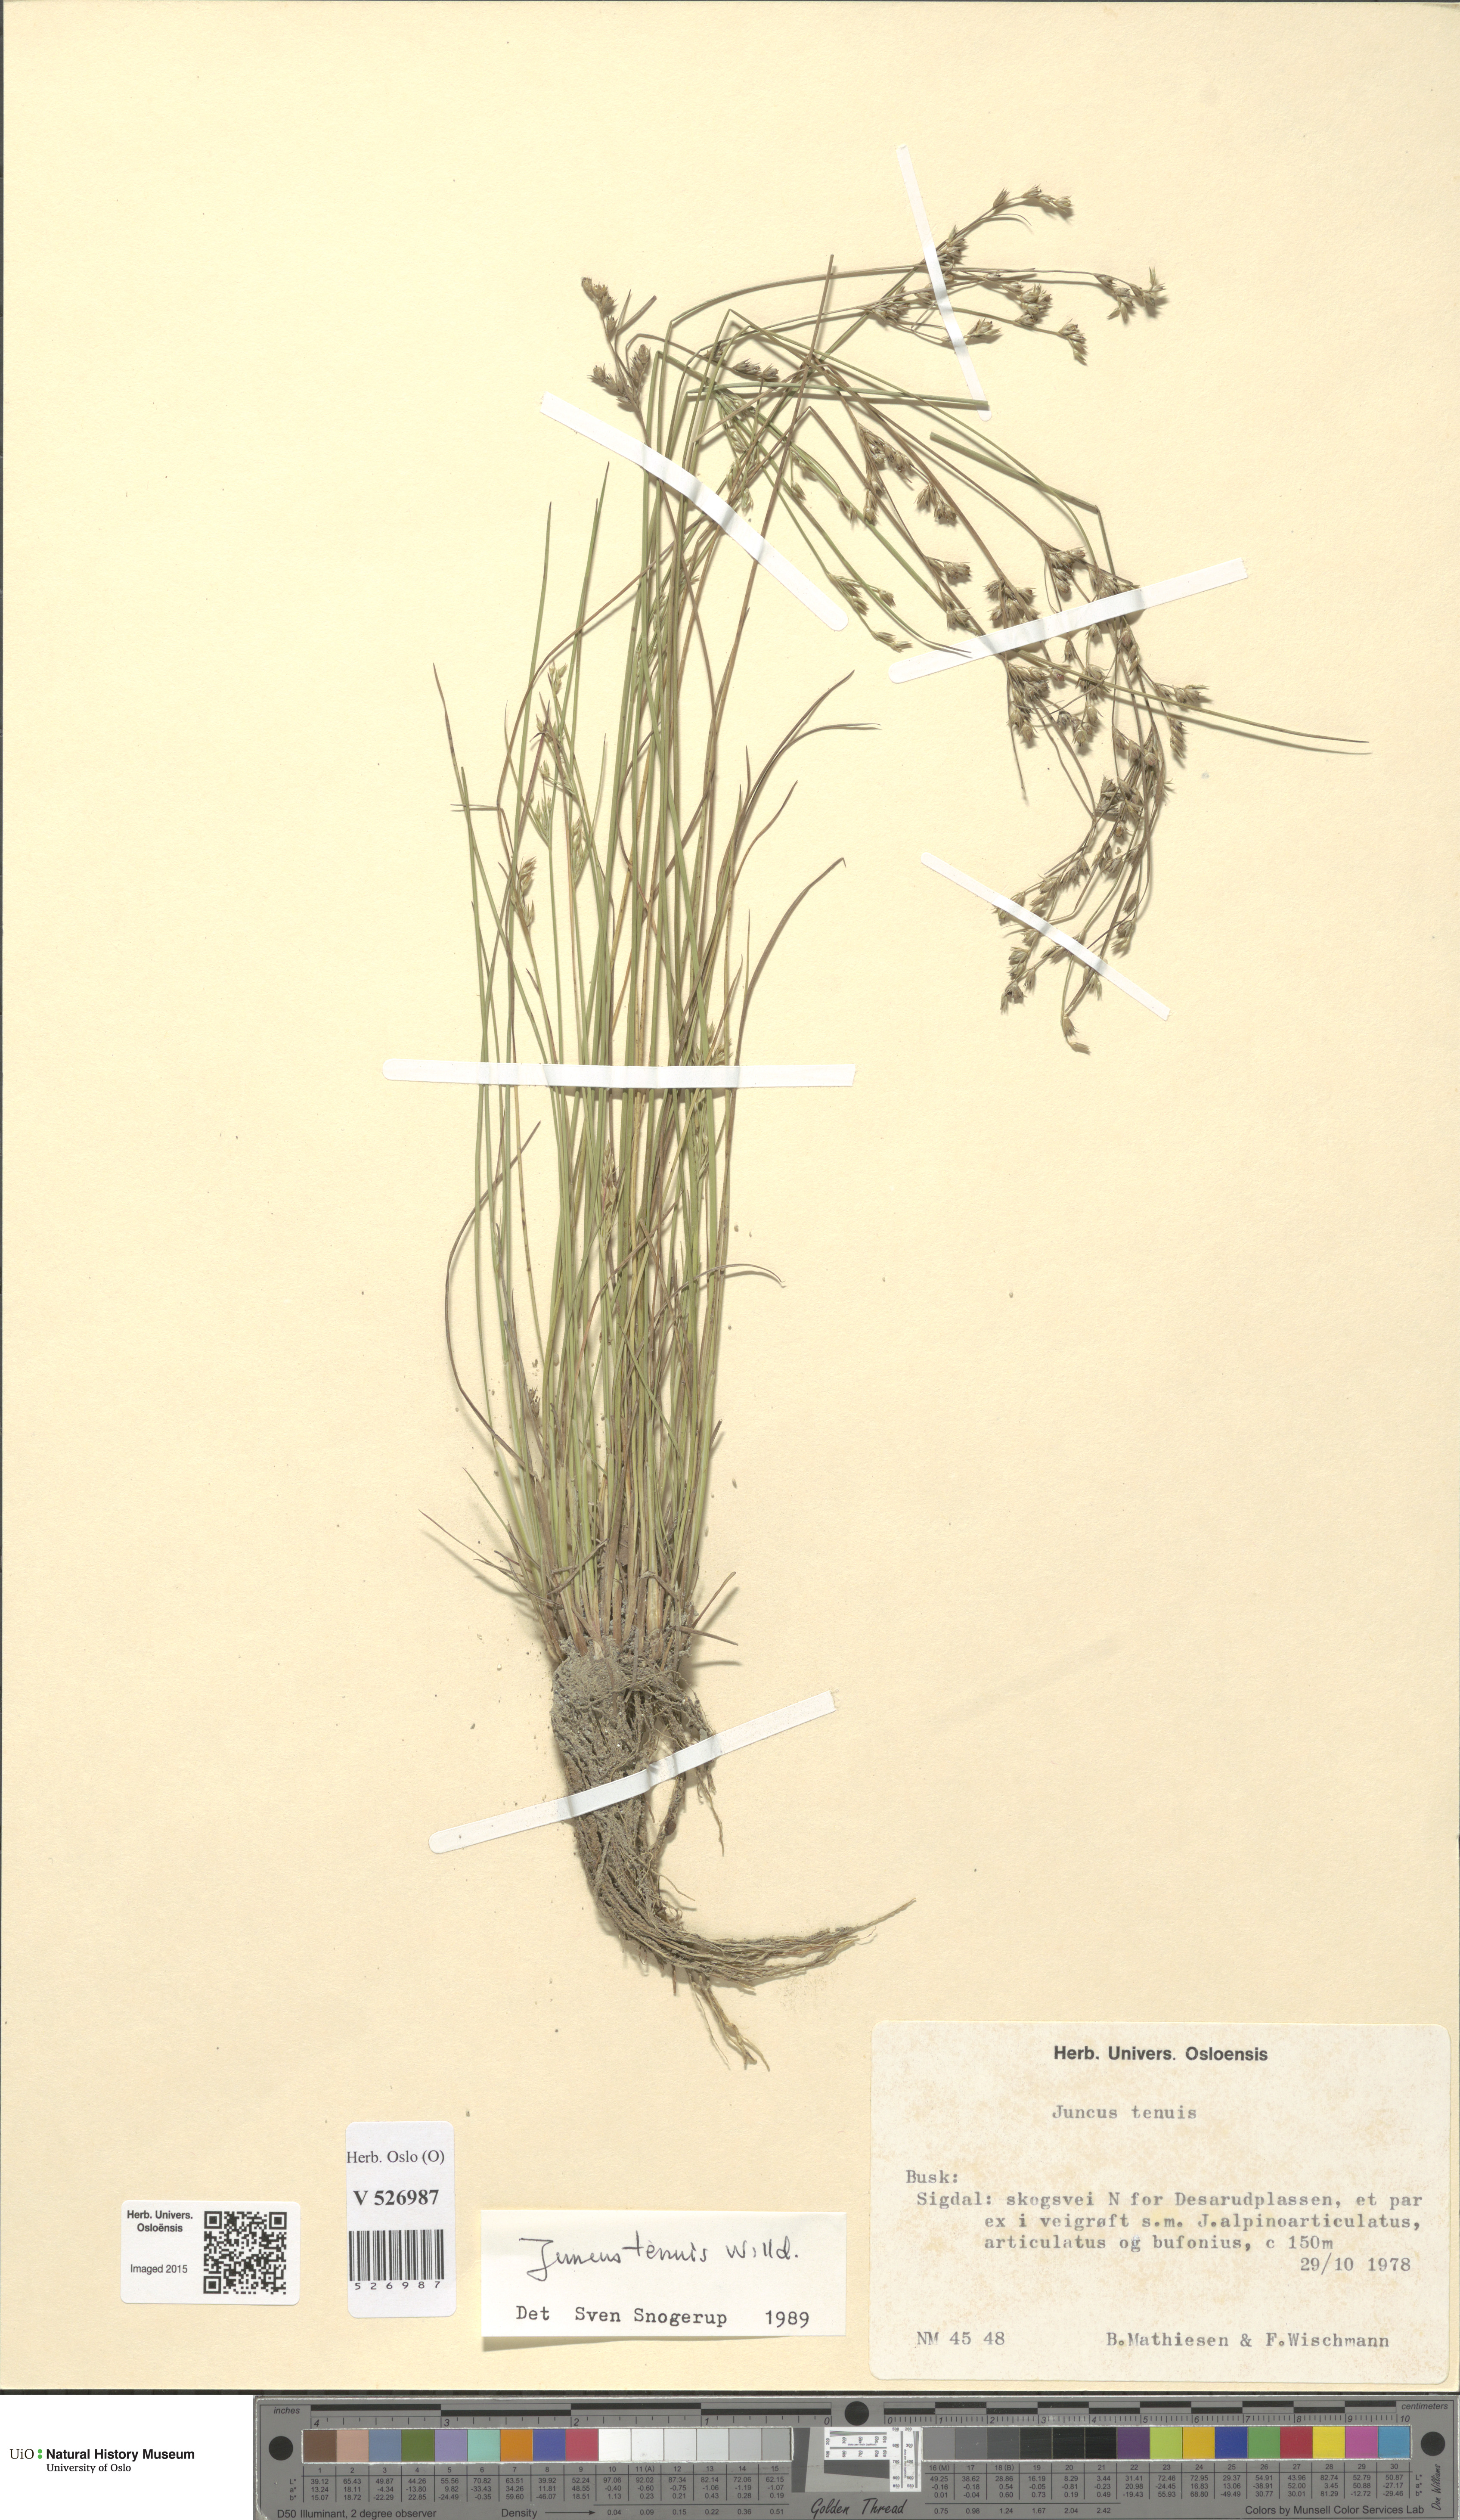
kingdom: Plantae
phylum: Tracheophyta
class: Liliopsida
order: Poales
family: Juncaceae
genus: Juncus
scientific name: Juncus tenuis
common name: Slender rush
